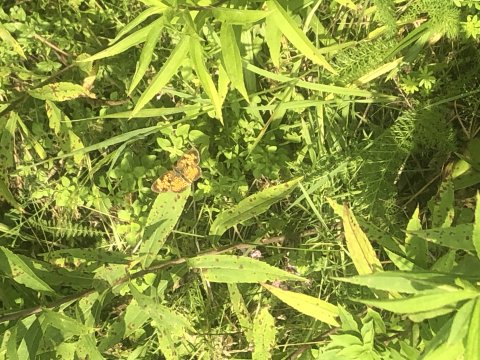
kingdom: Animalia
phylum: Arthropoda
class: Insecta
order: Lepidoptera
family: Nymphalidae
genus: Phyciodes
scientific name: Phyciodes
